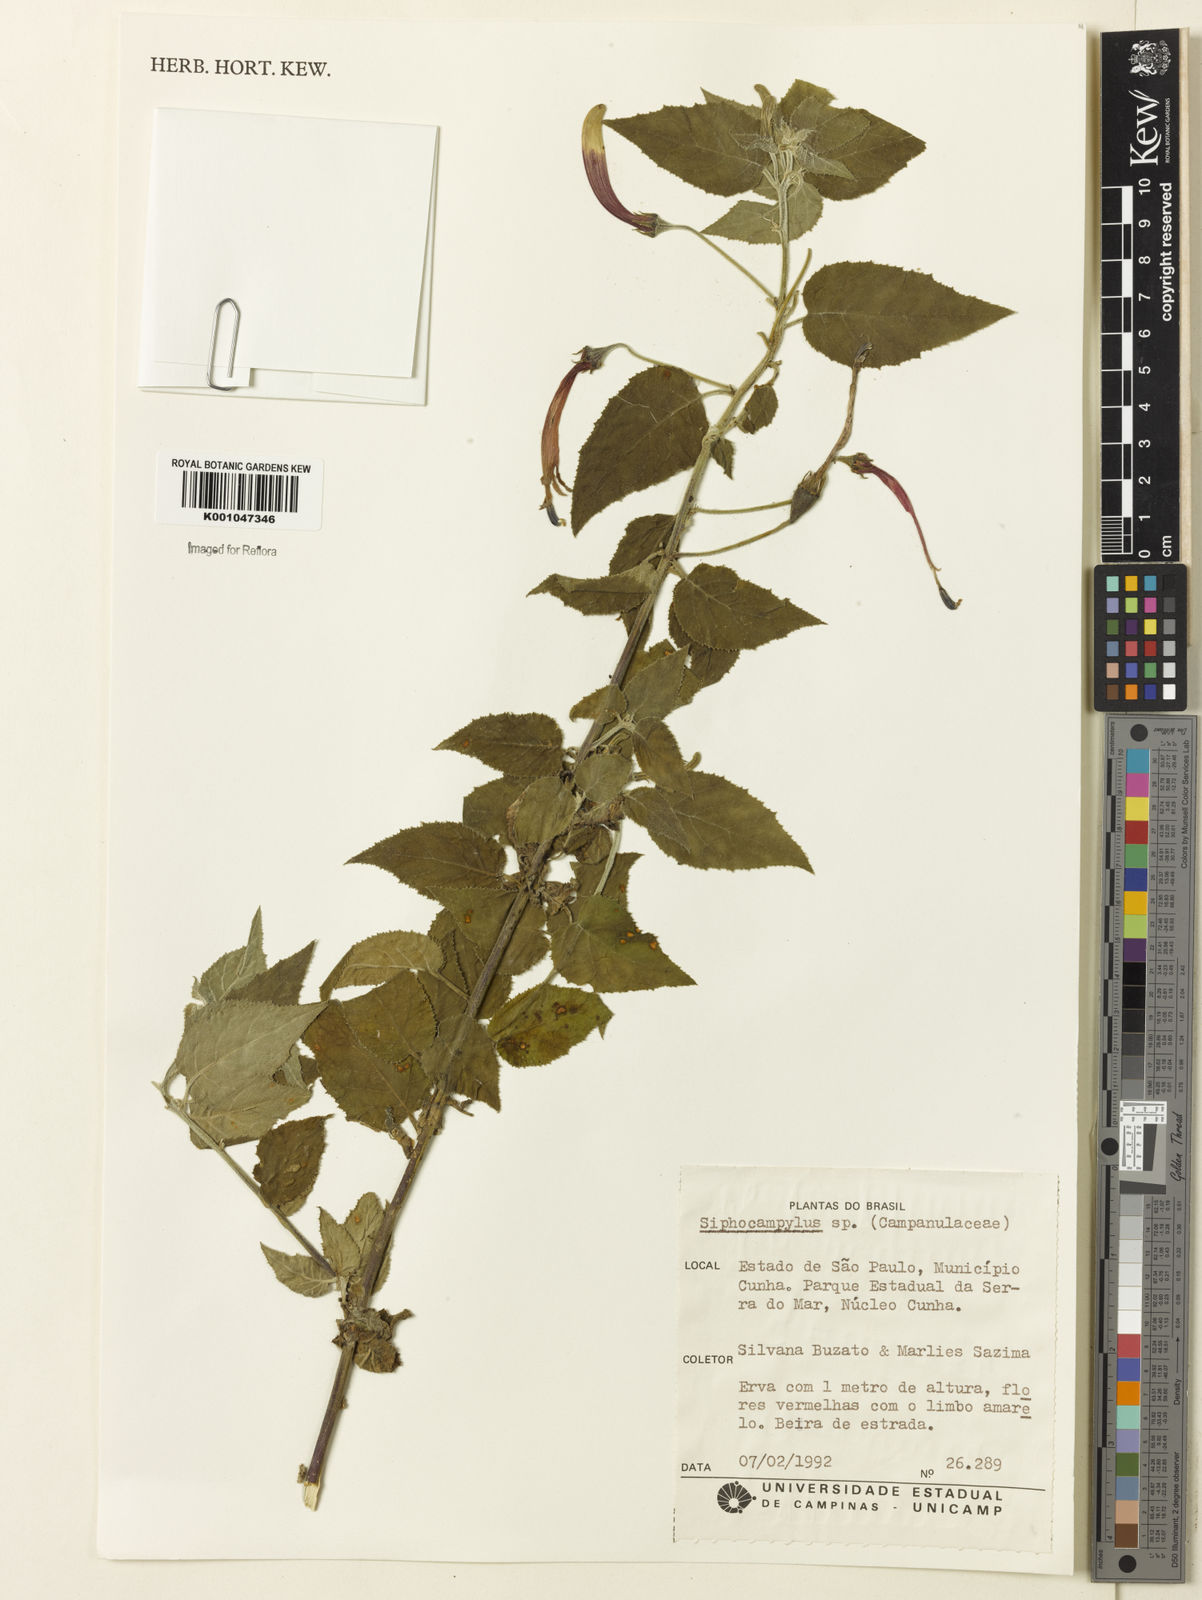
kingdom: Plantae
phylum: Tracheophyta
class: Magnoliopsida
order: Asterales
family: Campanulaceae
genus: Siphocampylus
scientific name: Siphocampylus
